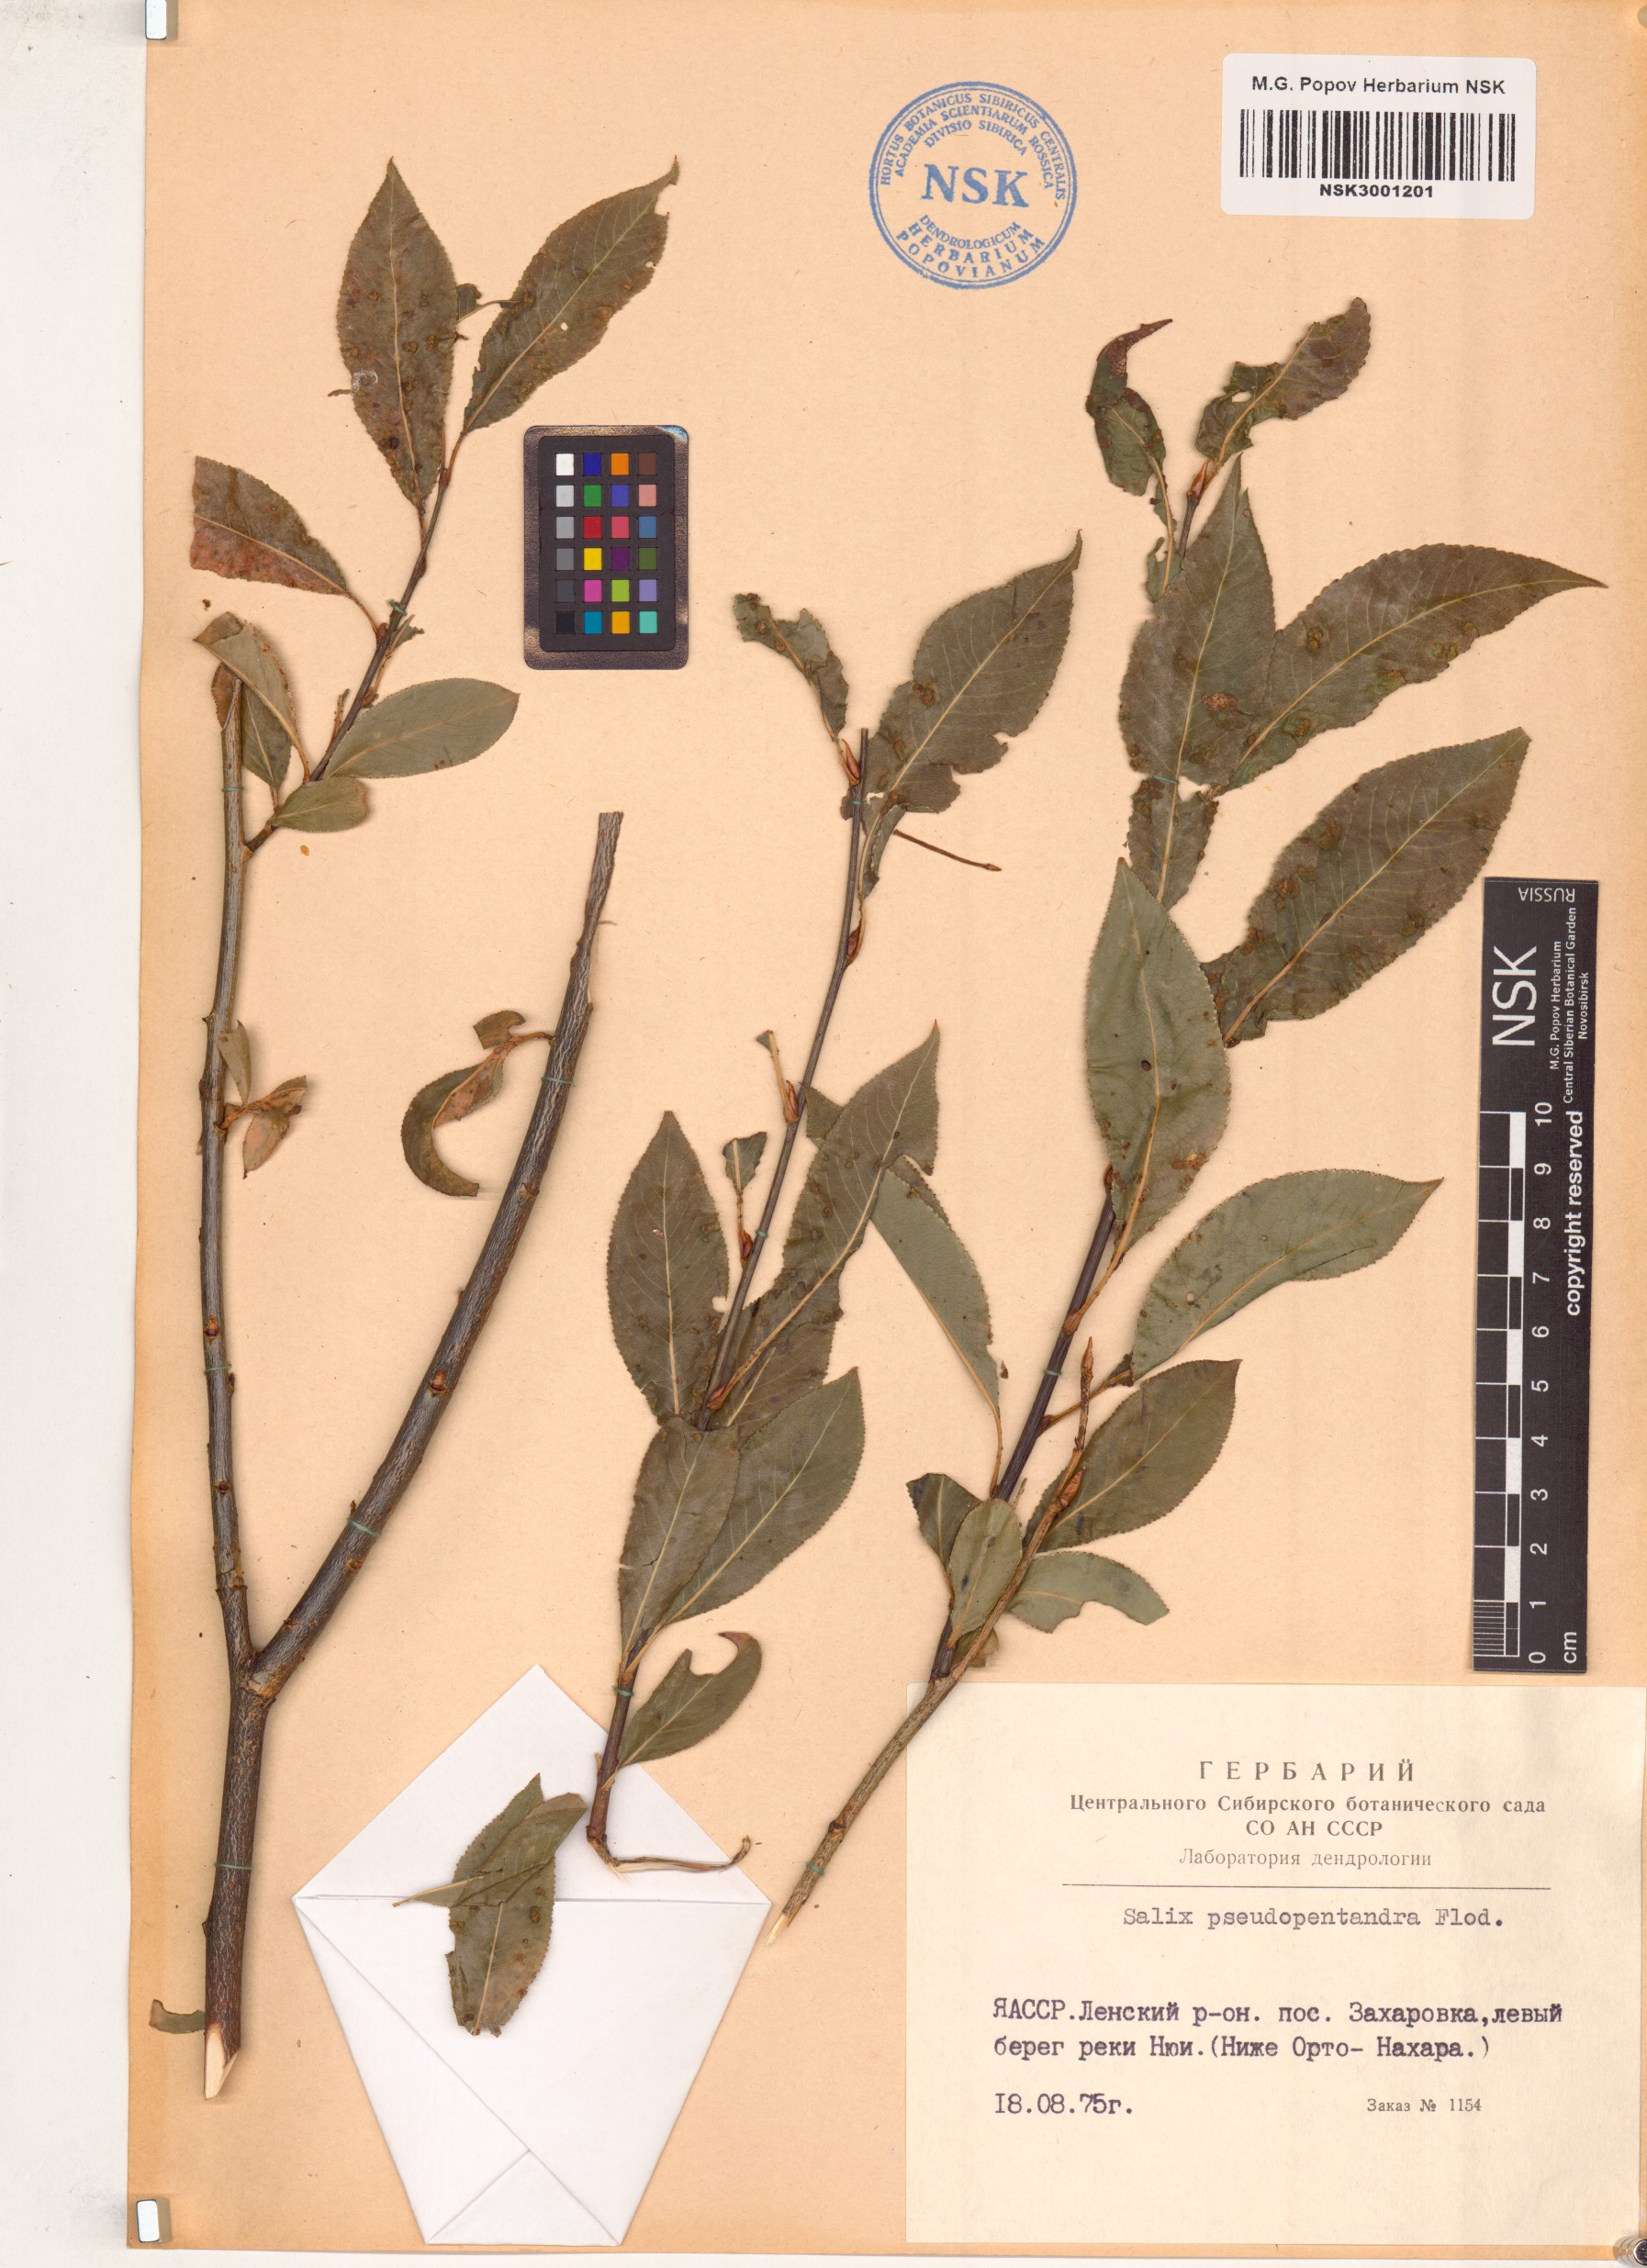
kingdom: Plantae
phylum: Tracheophyta
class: Magnoliopsida
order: Malpighiales
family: Salicaceae
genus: Salix
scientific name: Salix pseudopentandra
